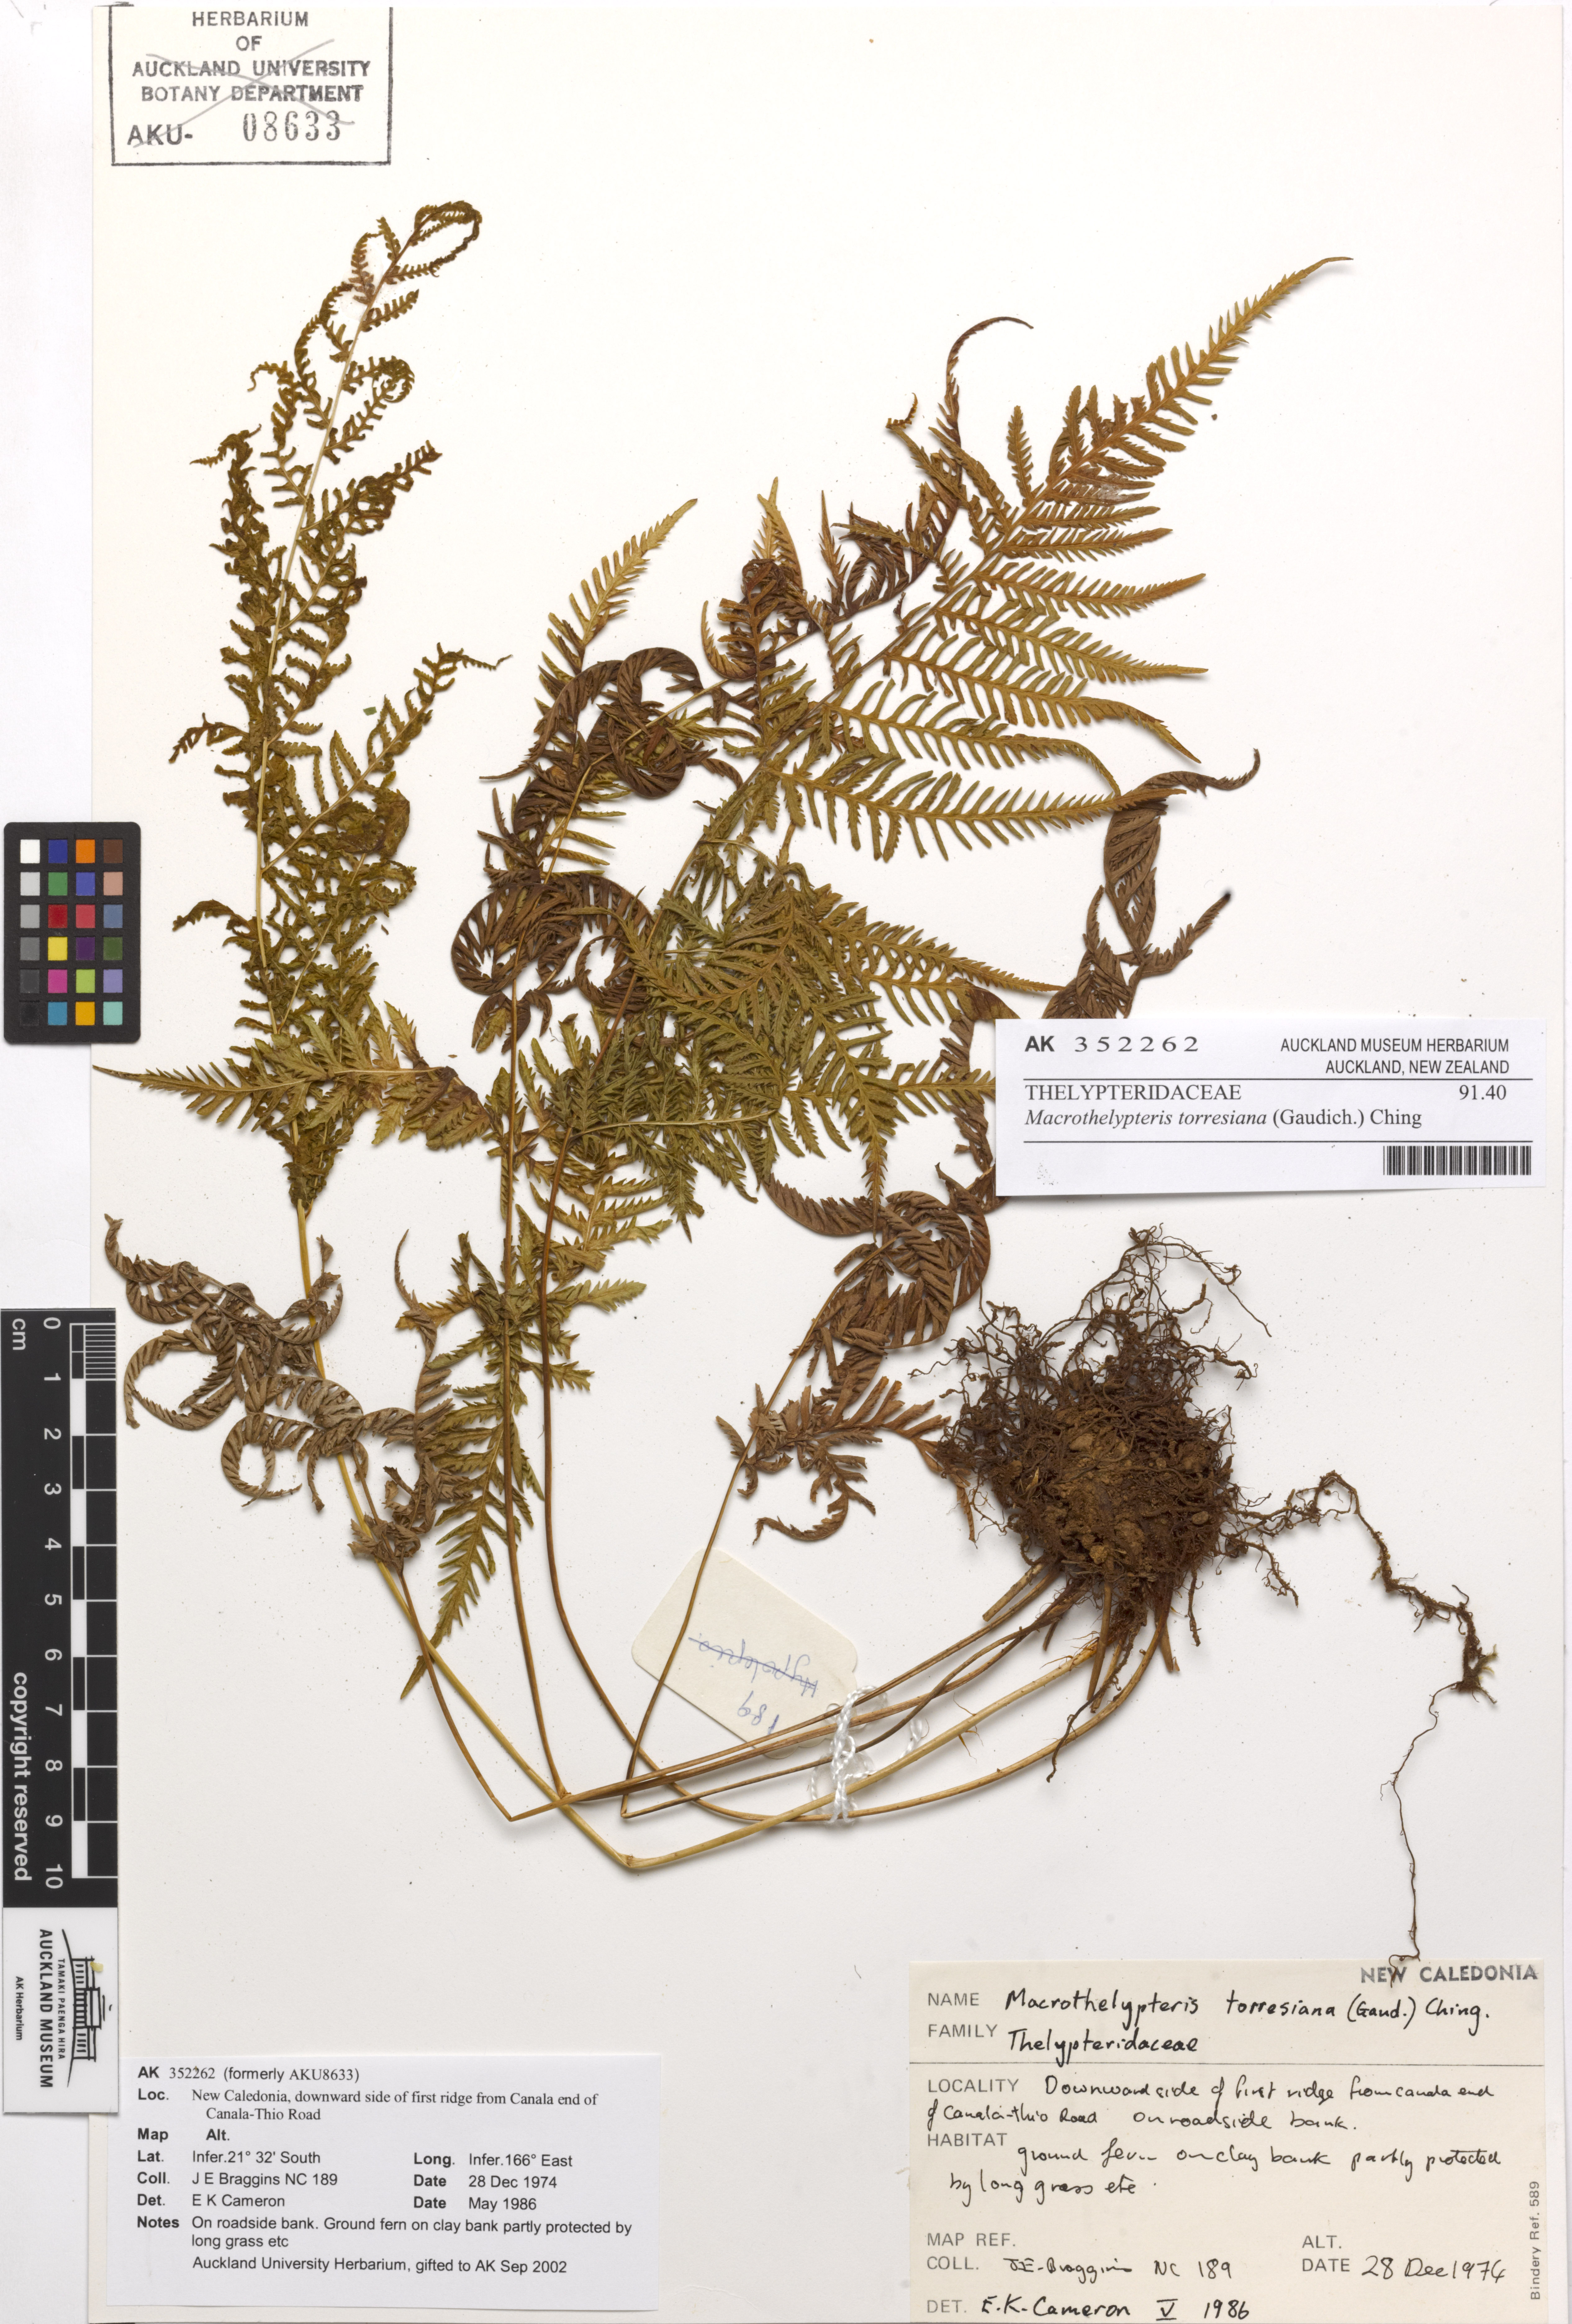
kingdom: Plantae
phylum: Tracheophyta
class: Polypodiopsida
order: Polypodiales
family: Thelypteridaceae
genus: Macrothelypteris
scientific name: Macrothelypteris torresiana
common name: Swordfern
